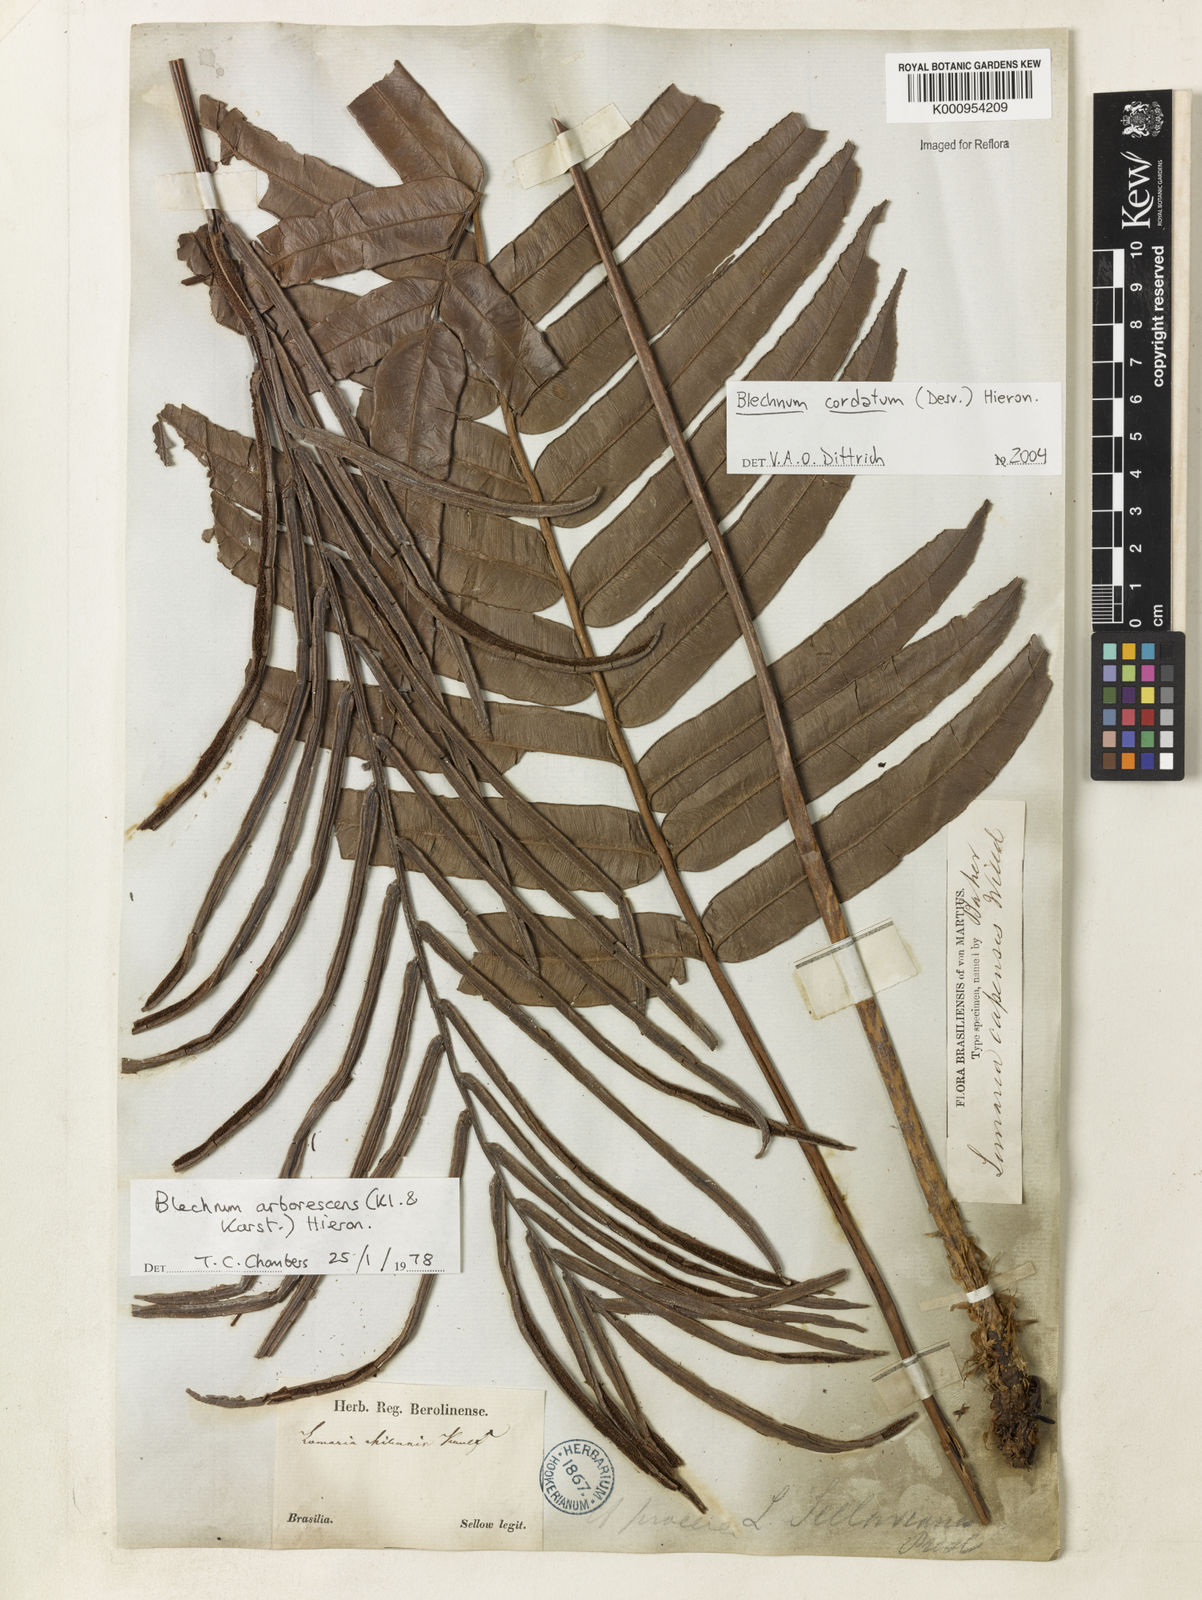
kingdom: Plantae
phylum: Tracheophyta
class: Polypodiopsida
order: Polypodiales
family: Blechnaceae
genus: Parablechnum
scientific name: Parablechnum cordatum
